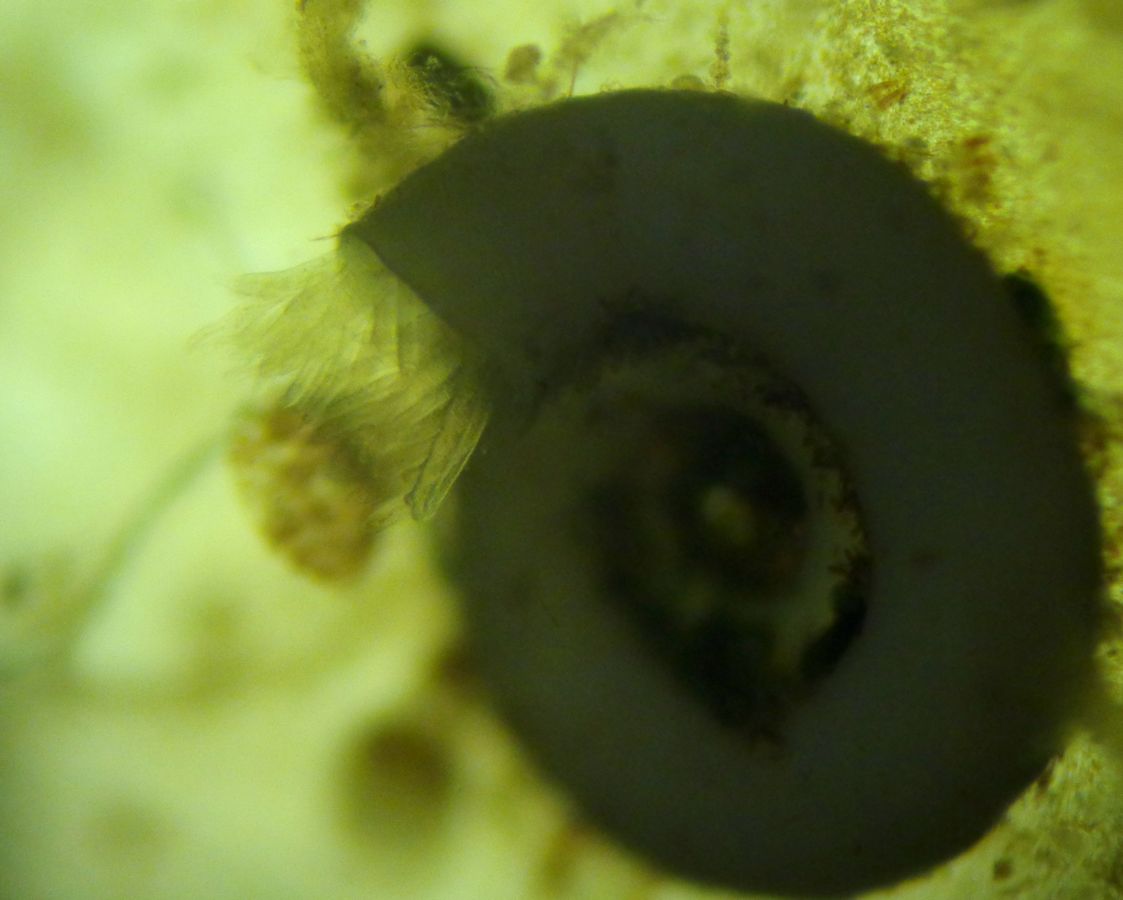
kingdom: Animalia
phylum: Cnidaria
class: Scyphozoa
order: Semaeostomeae
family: Ulmaridae
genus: Aurelia
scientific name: Aurelia aurita
